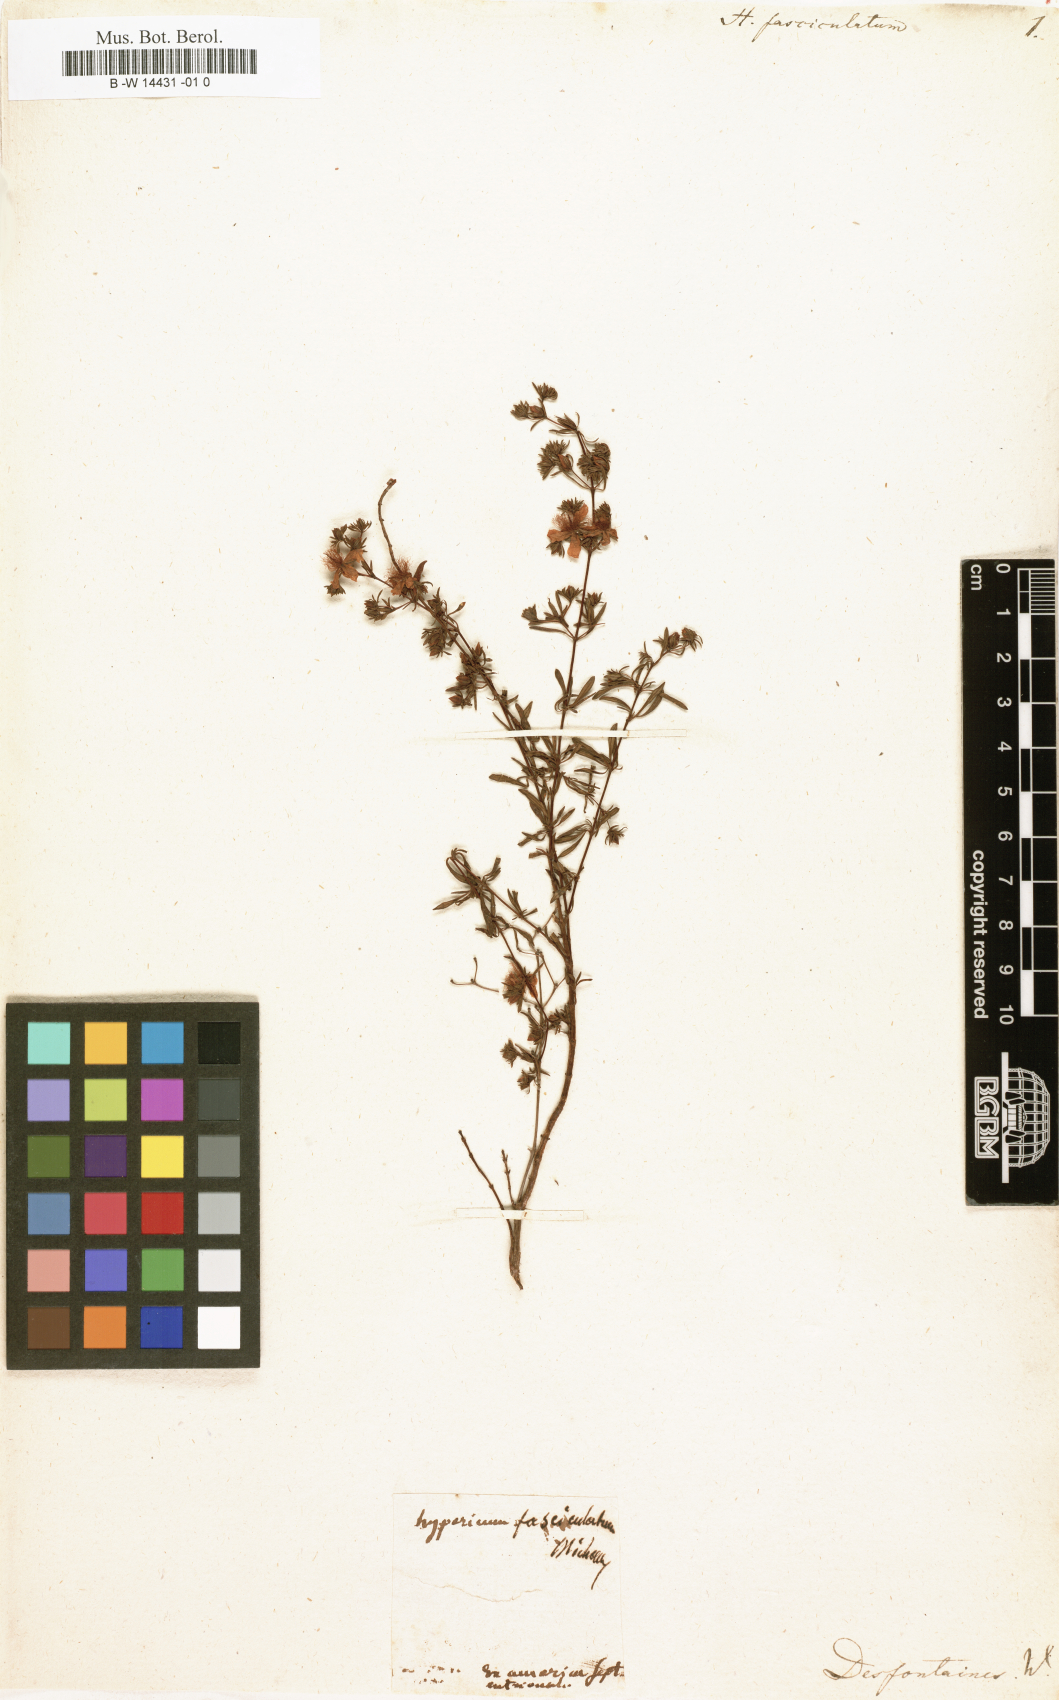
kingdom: Plantae
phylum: Tracheophyta
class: Magnoliopsida
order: Malpighiales
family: Hypericaceae
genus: Hypericum
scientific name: Hypericum fasciculatum
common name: Peelbark st. john's wort
